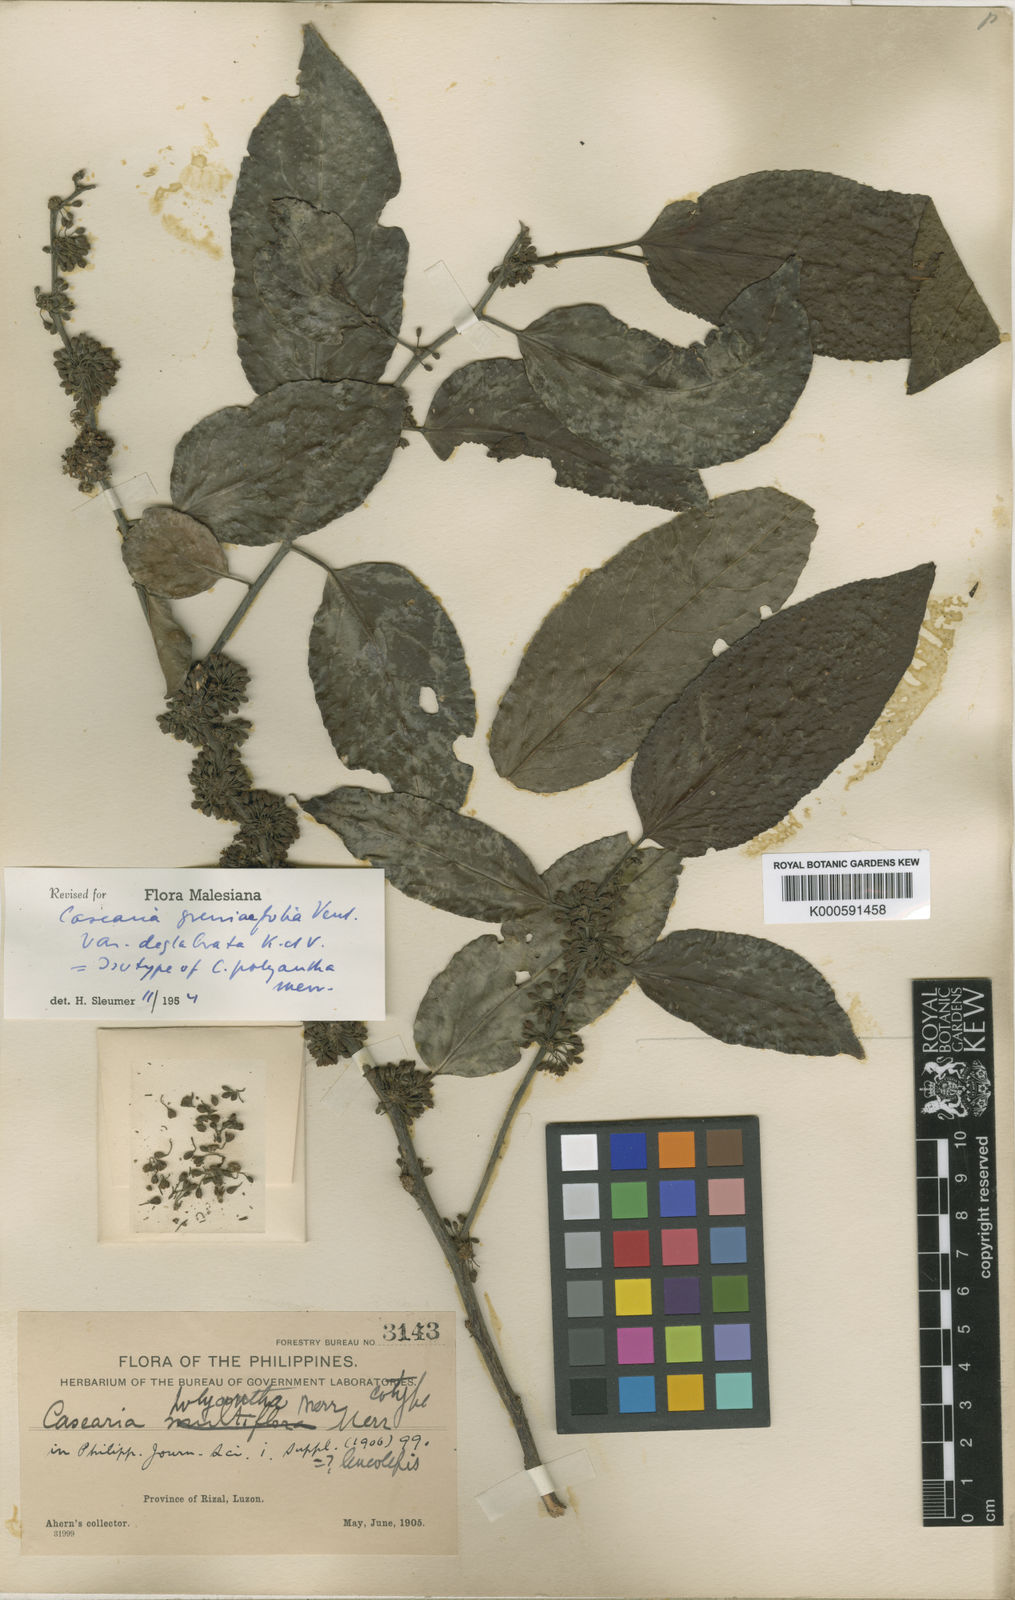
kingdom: Plantae
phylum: Tracheophyta
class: Magnoliopsida
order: Malpighiales
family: Salicaceae
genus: Casearia
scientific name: Casearia grewiifolia
